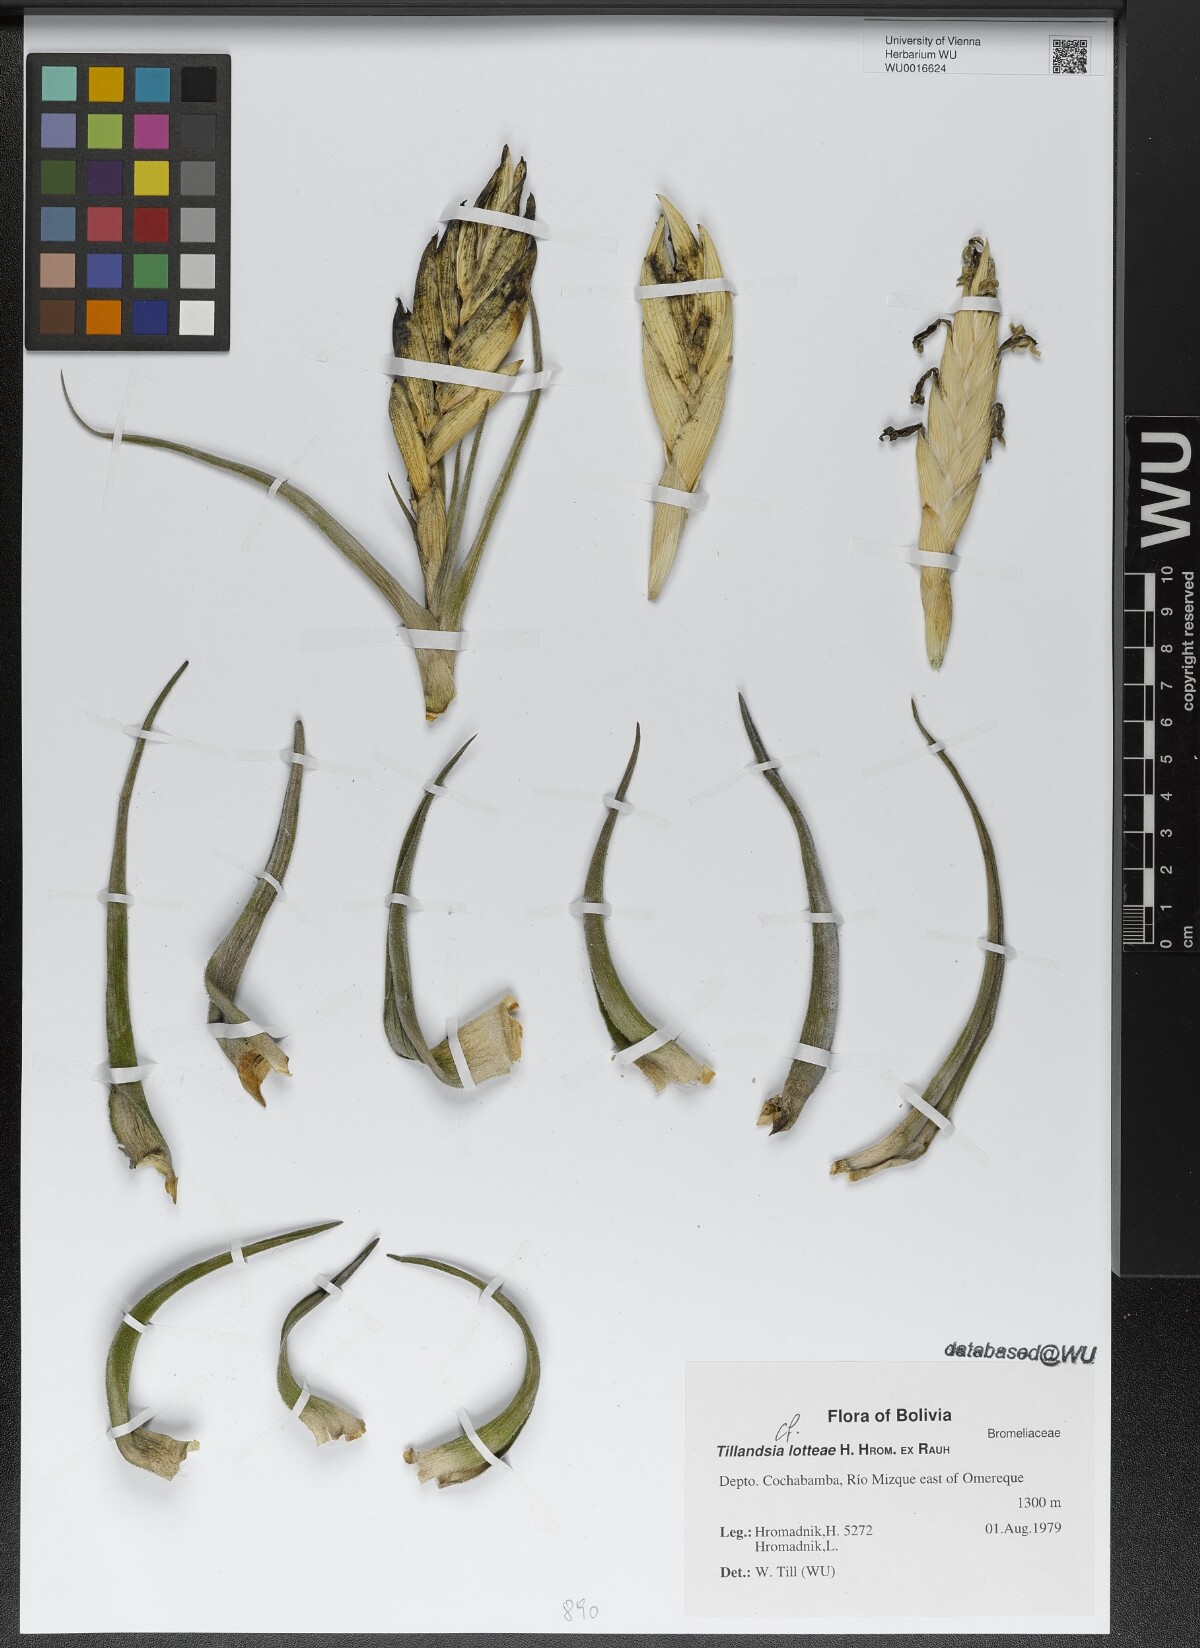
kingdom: Plantae
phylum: Tracheophyta
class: Liliopsida
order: Poales
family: Bromeliaceae
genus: Tillandsia
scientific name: Tillandsia lotteae
